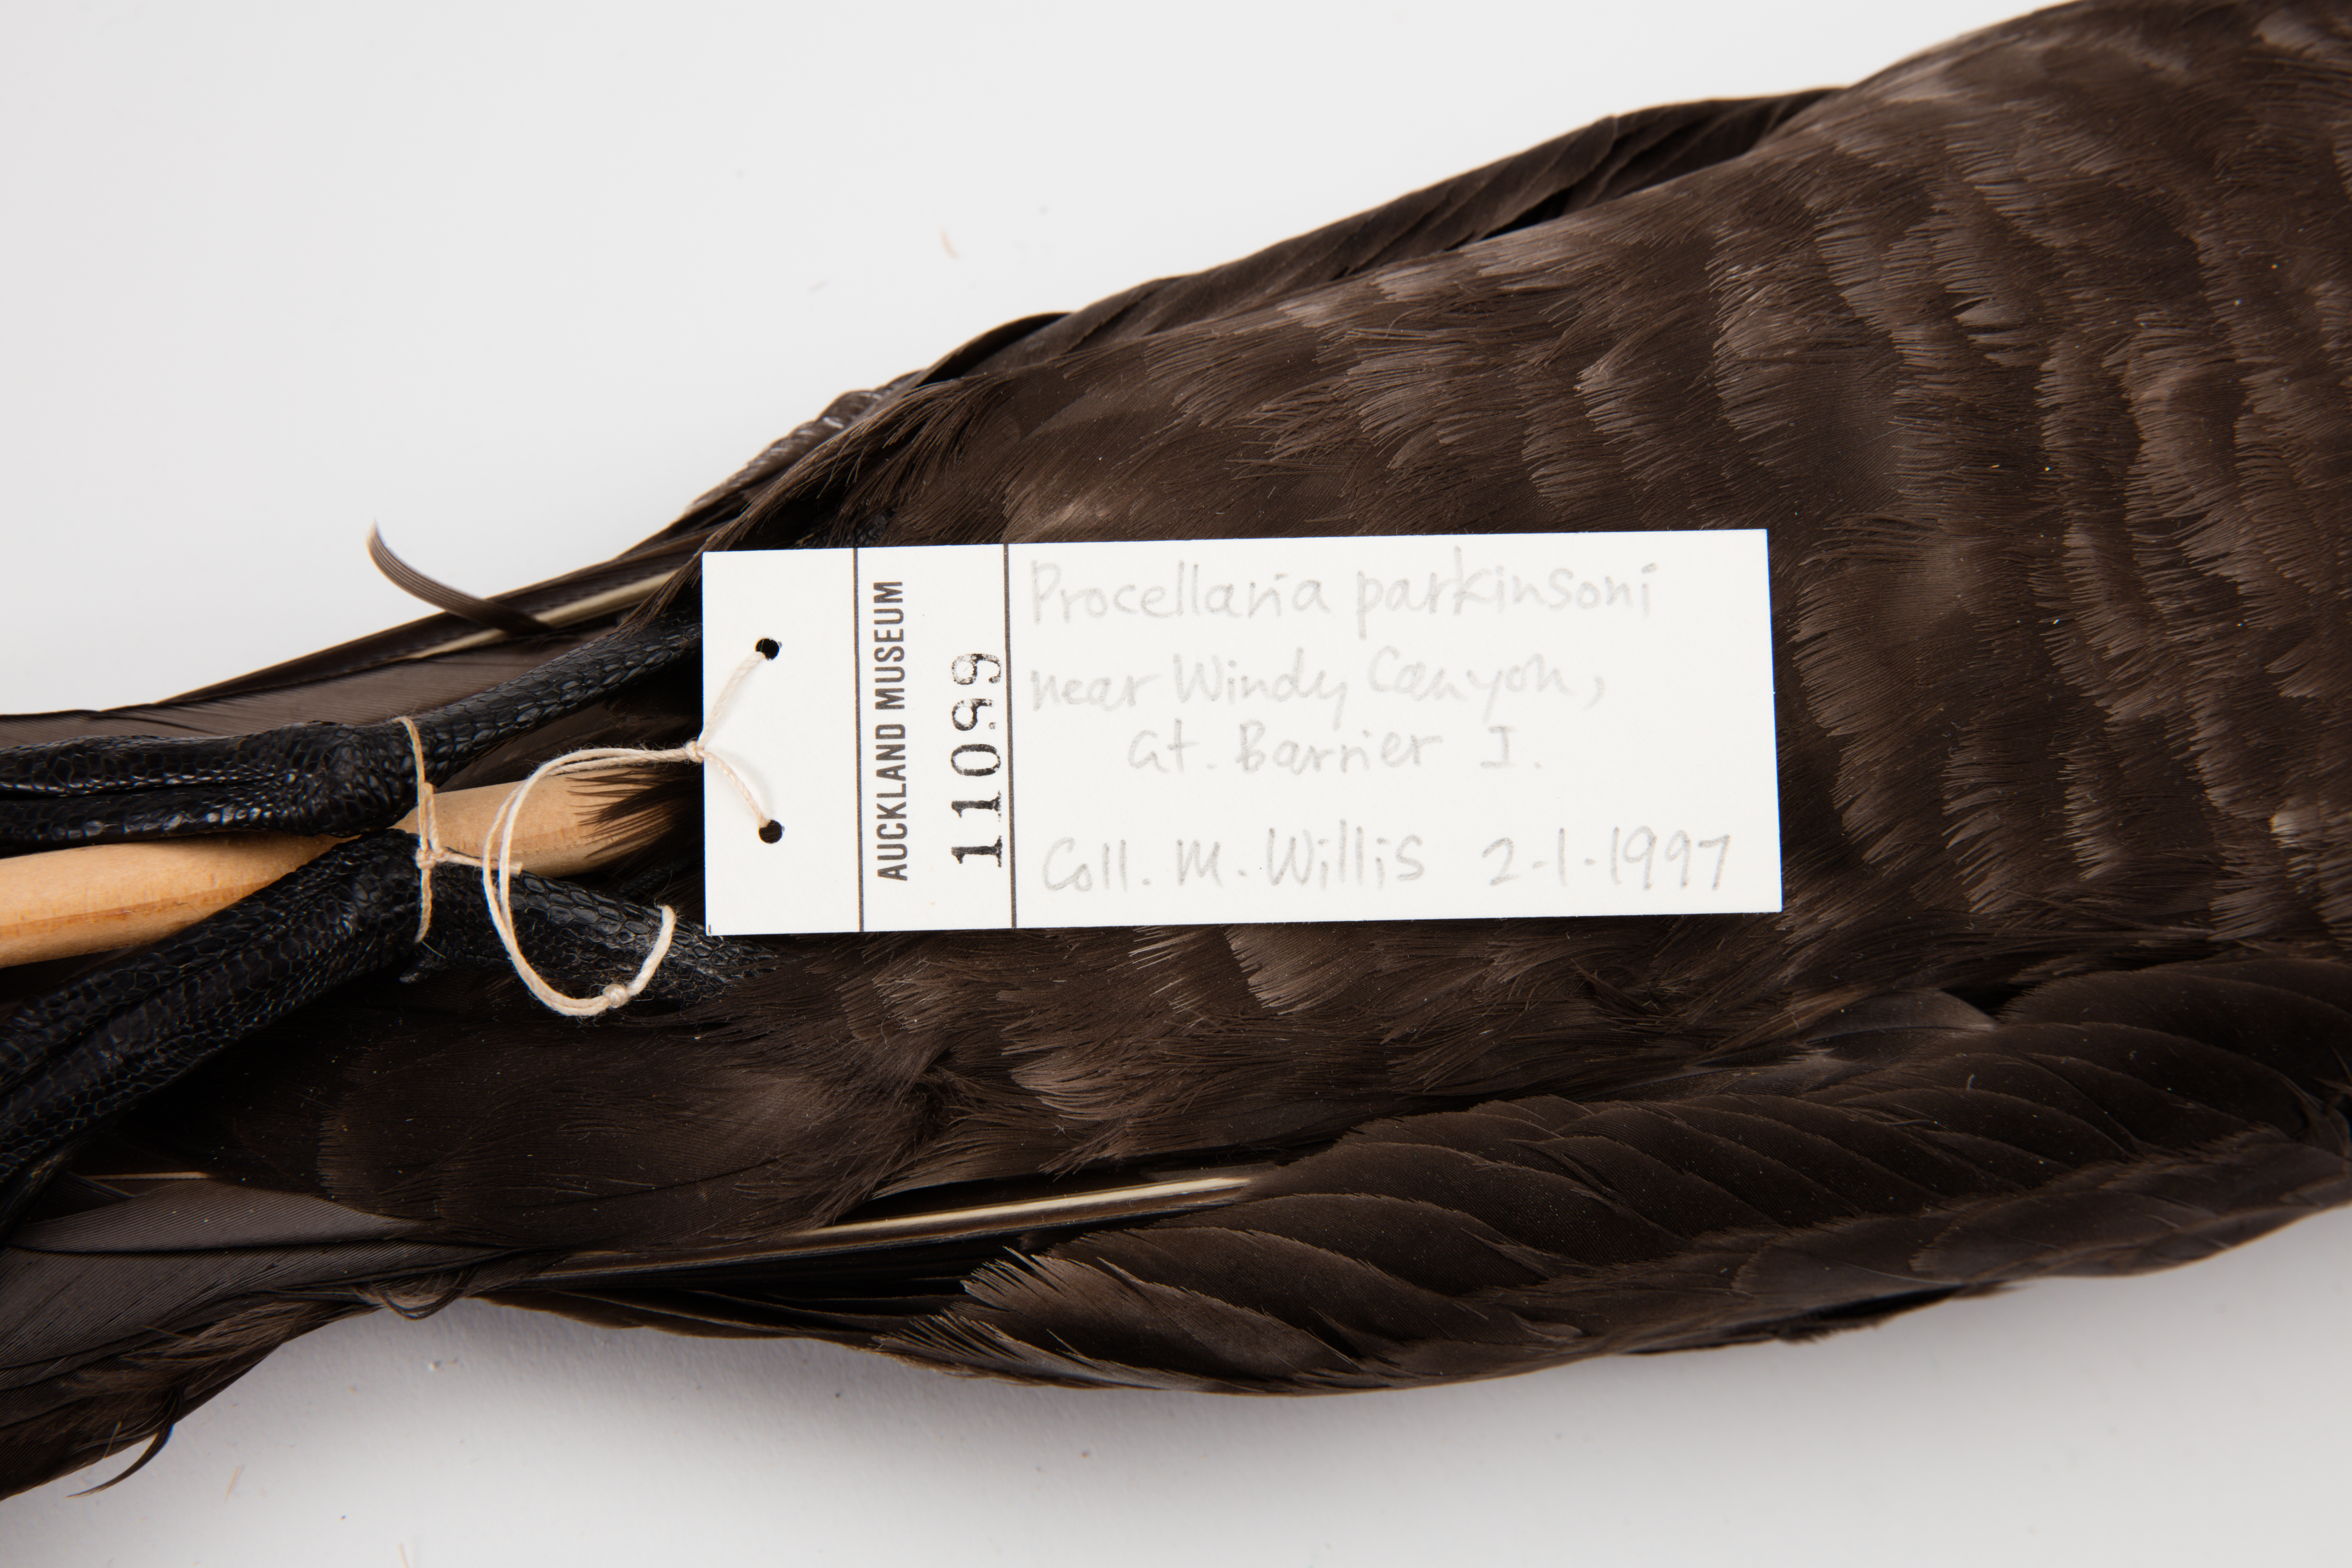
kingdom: Animalia
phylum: Chordata
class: Aves
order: Procellariiformes
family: Procellariidae
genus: Procellaria
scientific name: Procellaria parkinsoni
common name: Black petrel
